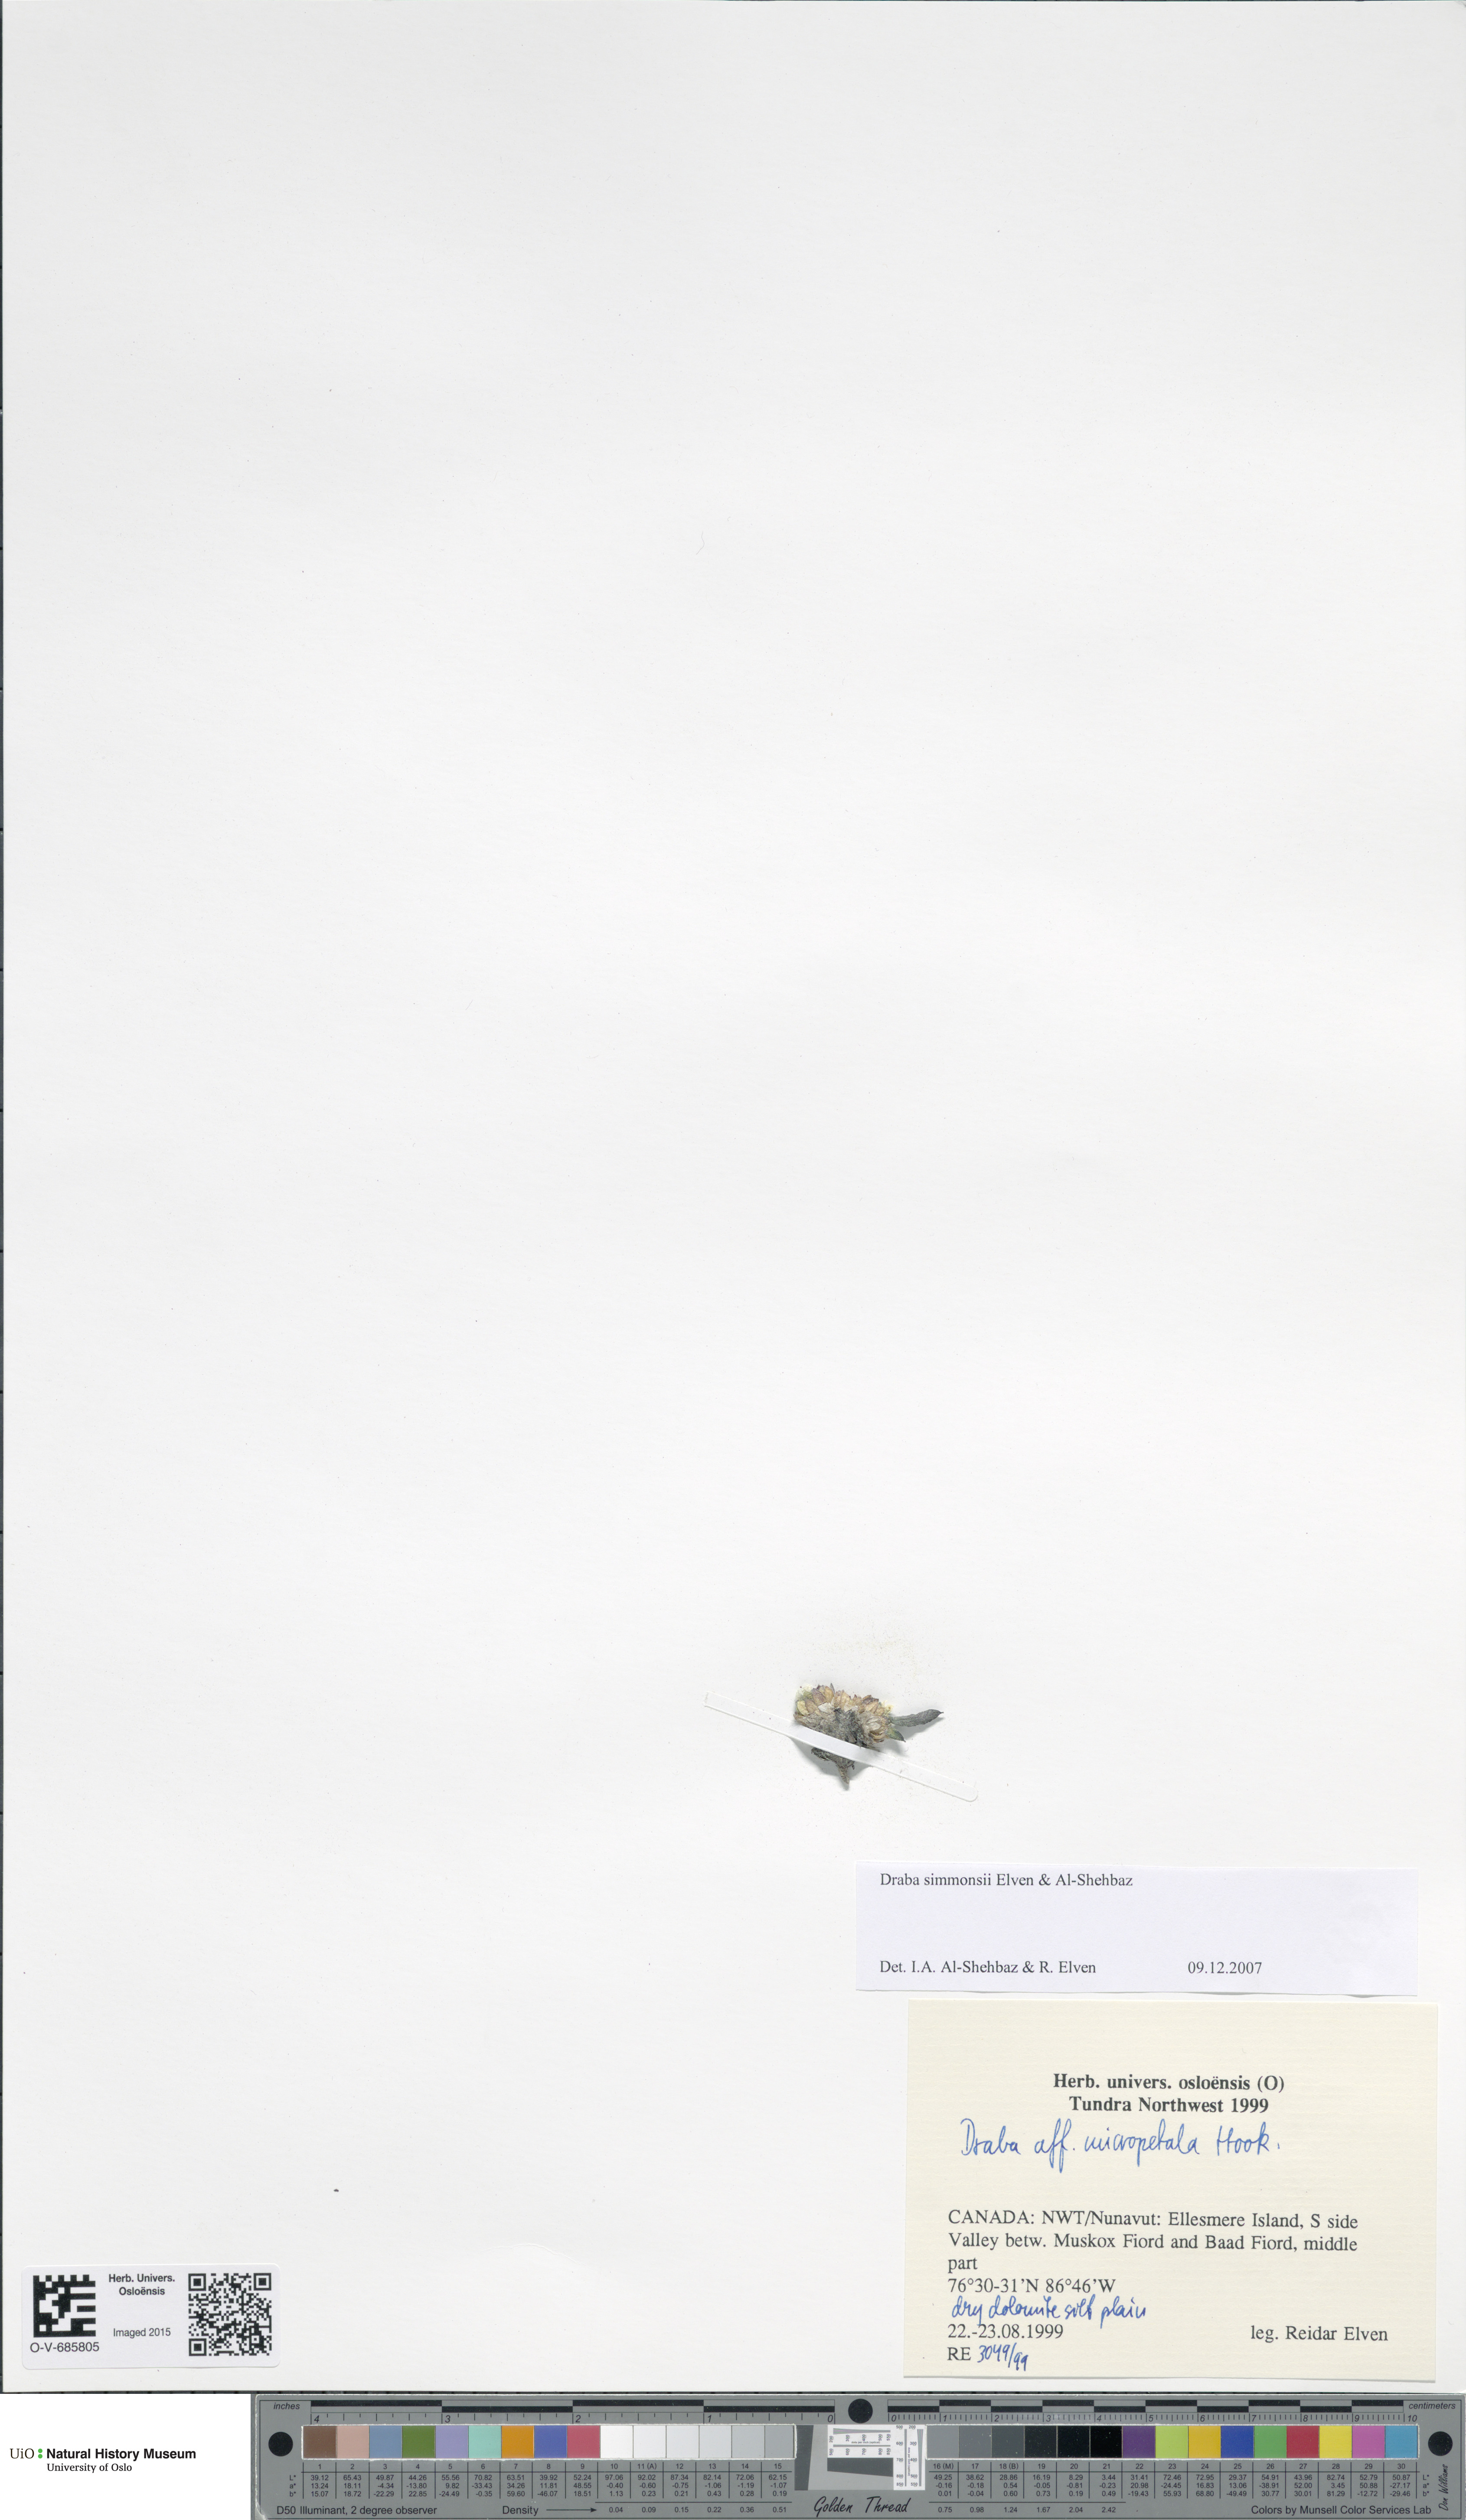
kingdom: Plantae
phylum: Tracheophyta
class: Magnoliopsida
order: Brassicales
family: Brassicaceae
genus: Draba
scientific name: Draba simmonsii
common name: Simmonds' whitlow-grass
